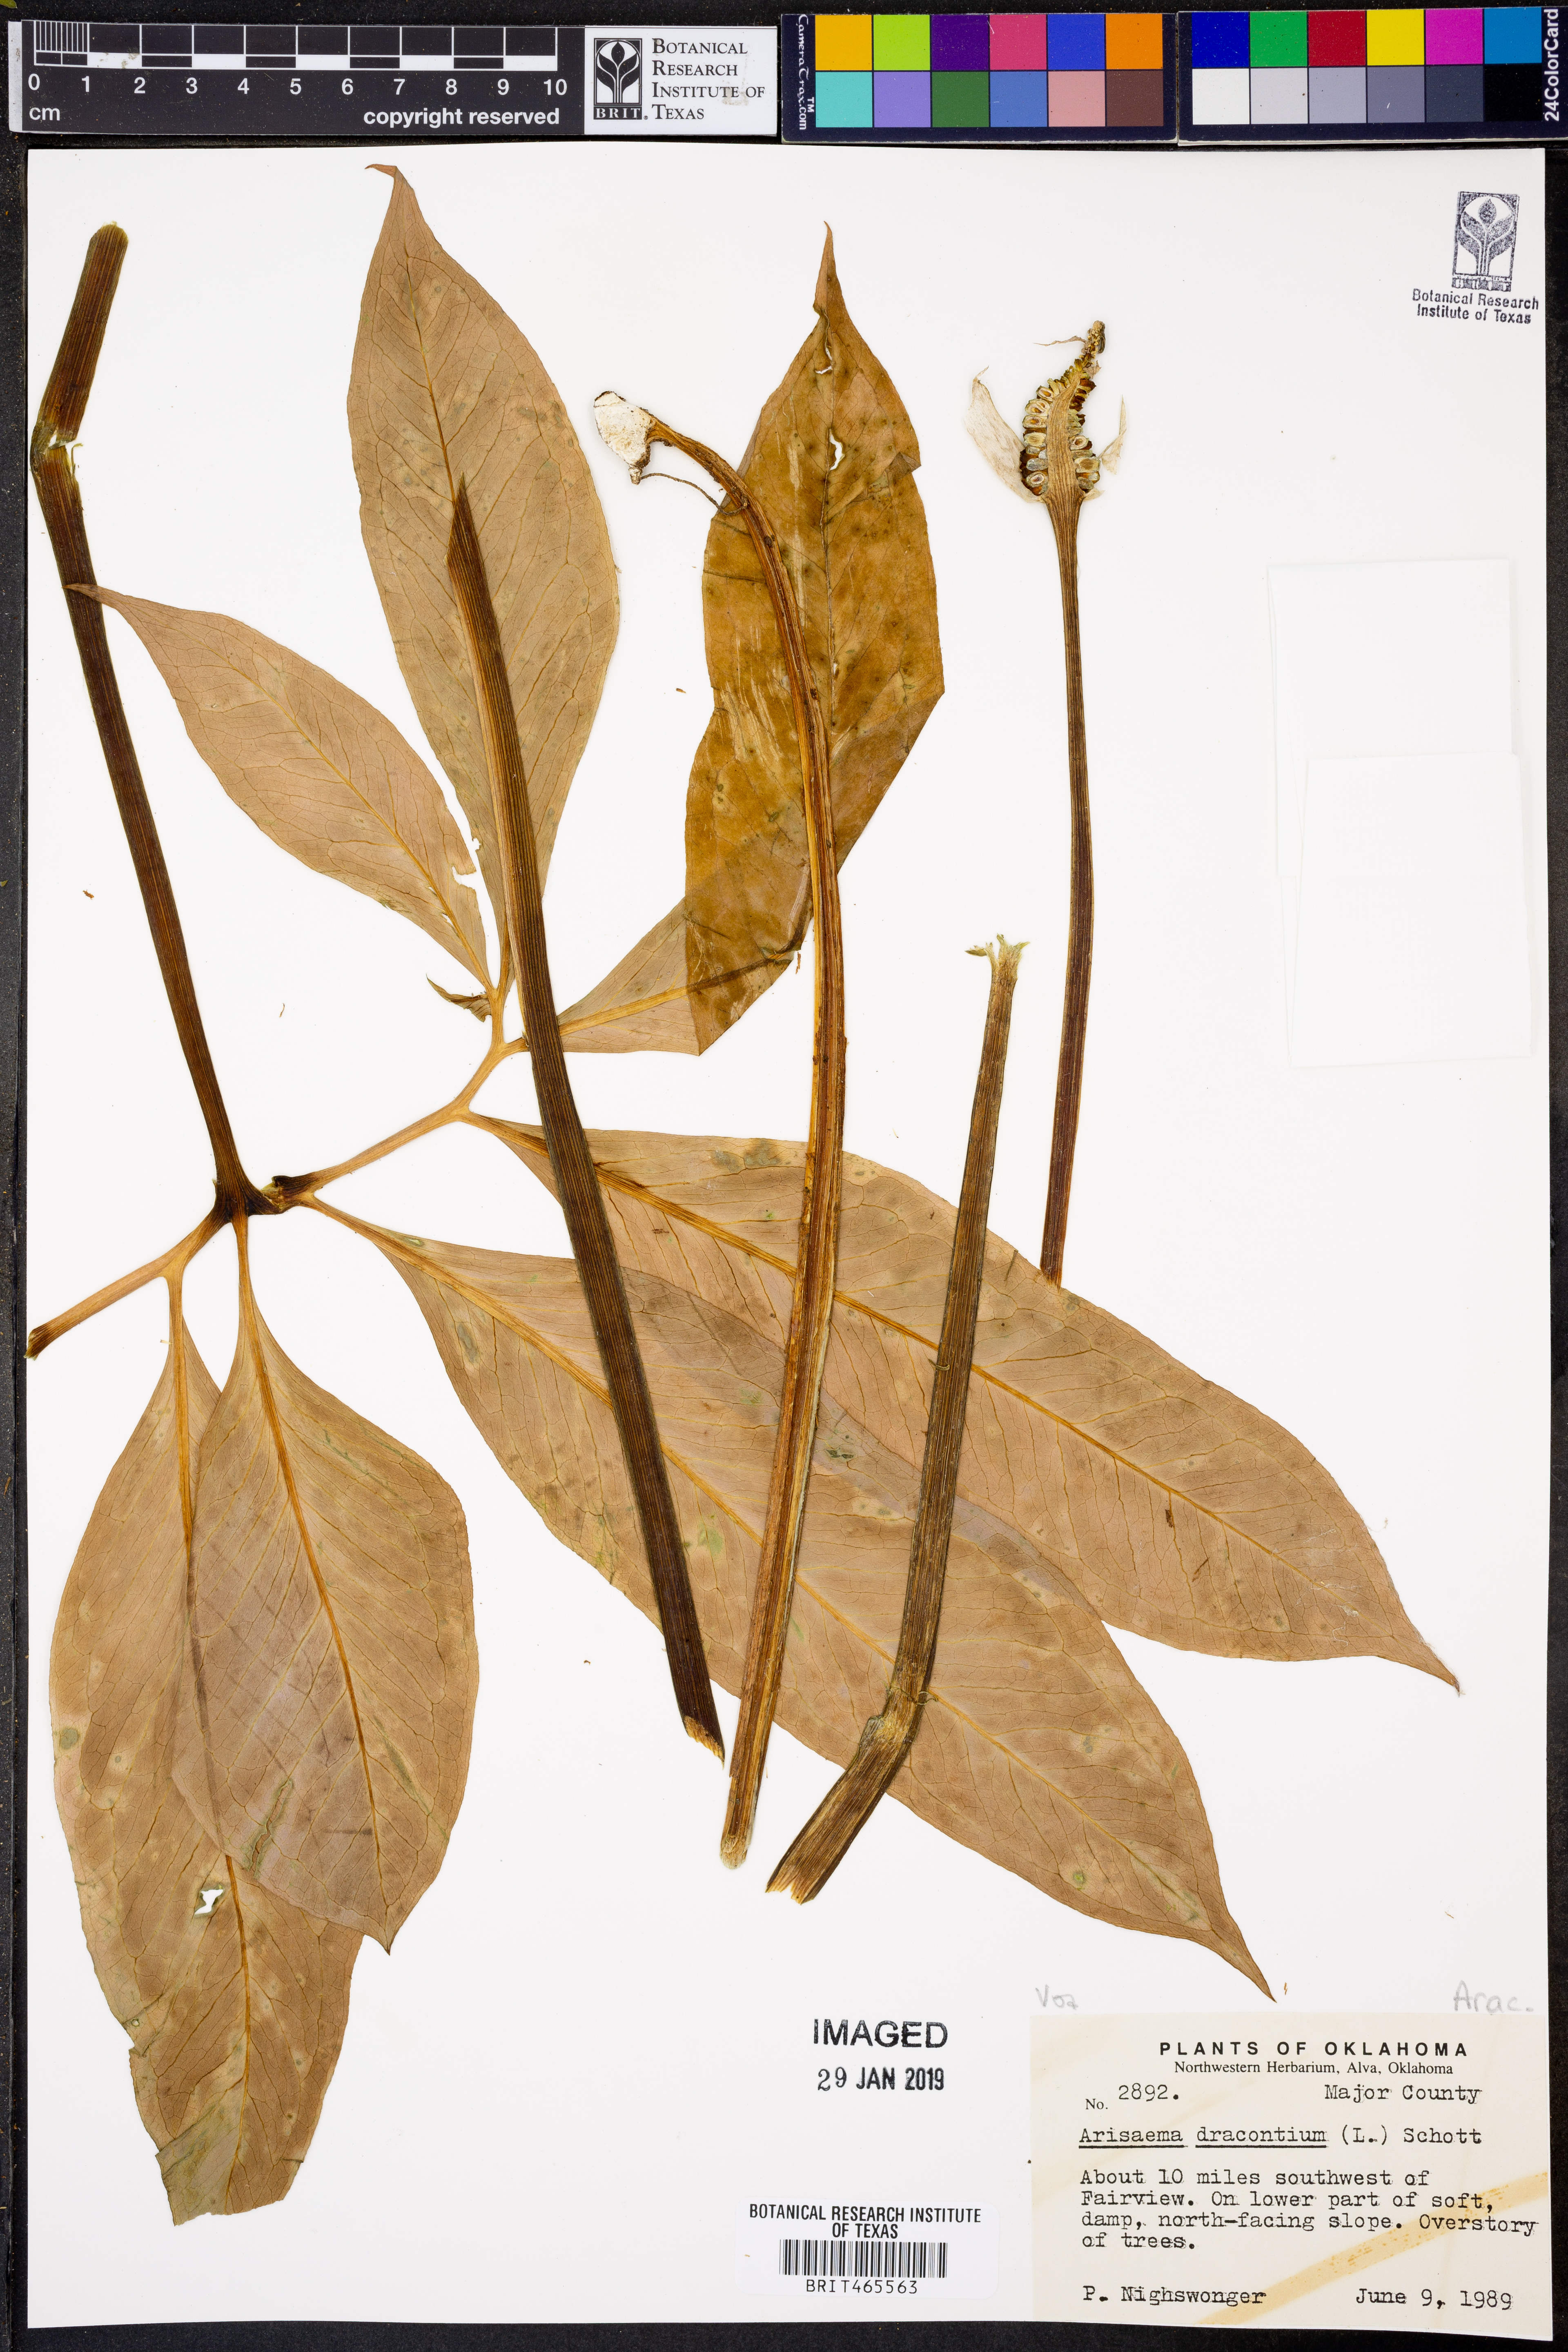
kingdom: Plantae
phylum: Tracheophyta
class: Liliopsida
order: Alismatales
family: Araceae
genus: Arisaema
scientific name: Arisaema dracontium
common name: Dragon-arum
